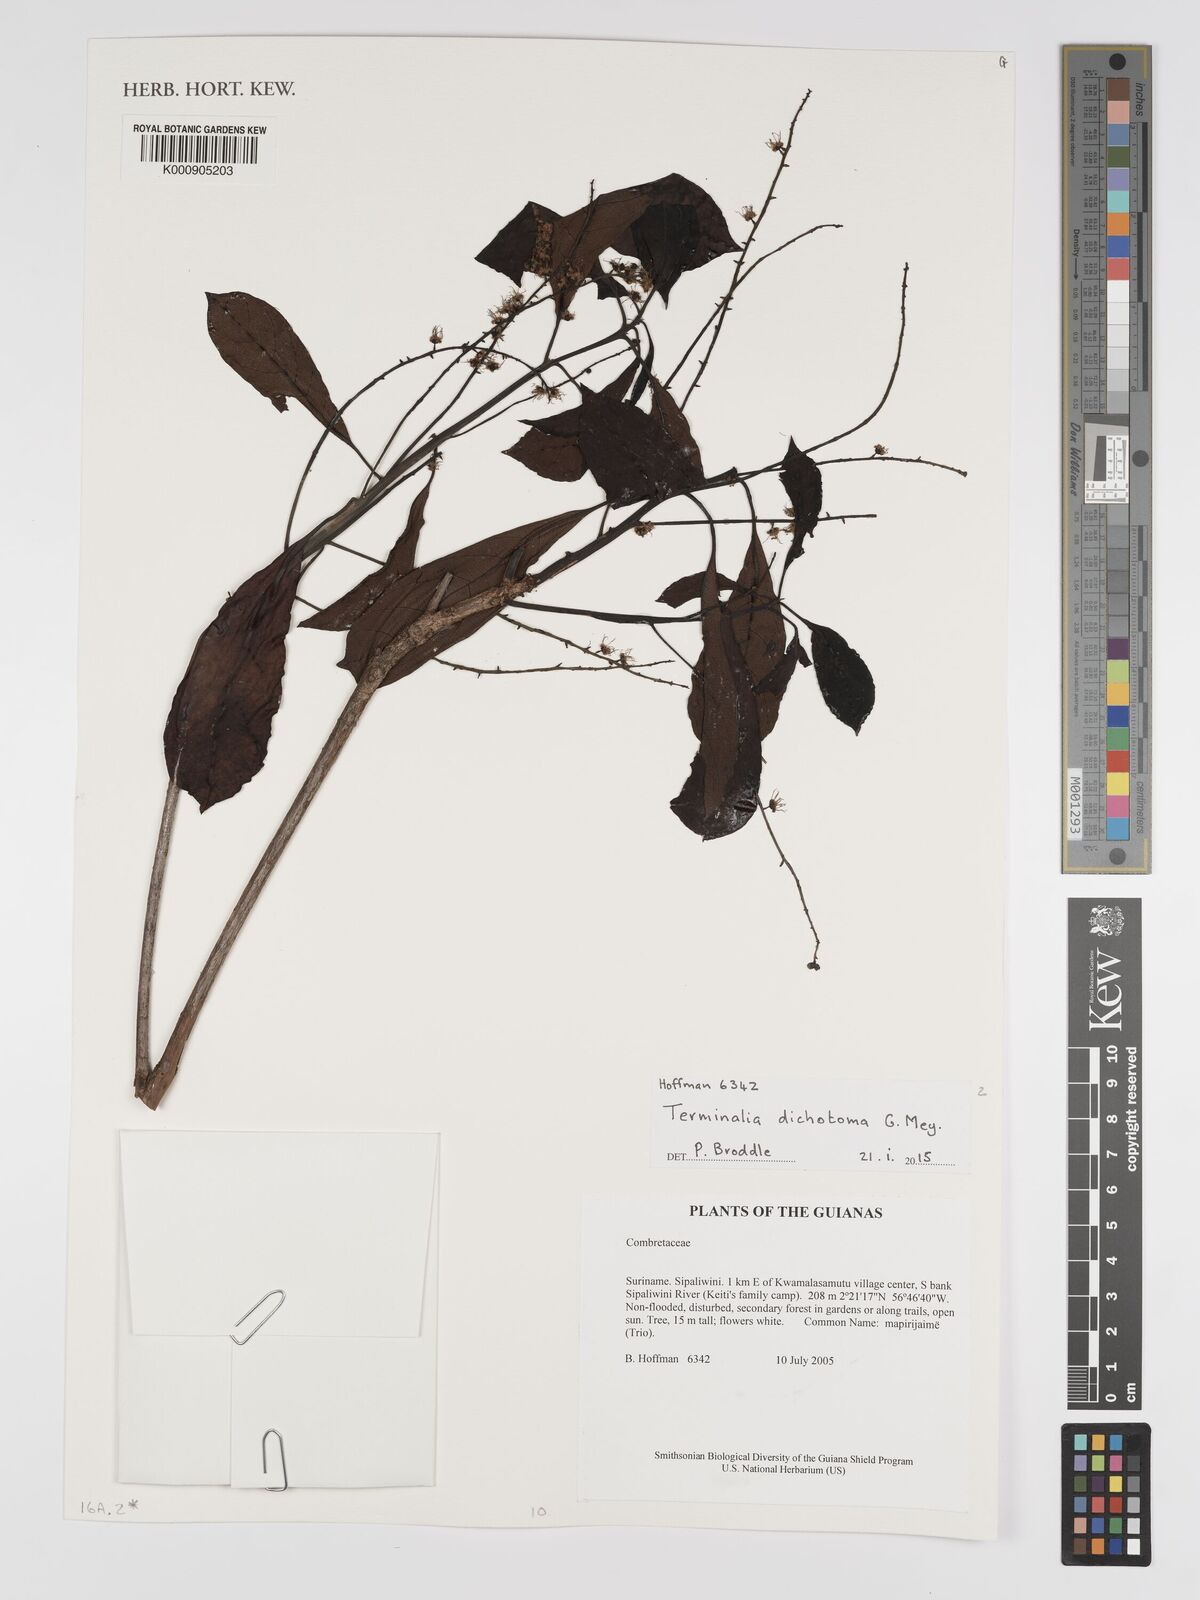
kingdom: Plantae
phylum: Tracheophyta
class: Magnoliopsida
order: Myrtales
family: Combretaceae
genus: Terminalia
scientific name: Terminalia dichotoma
